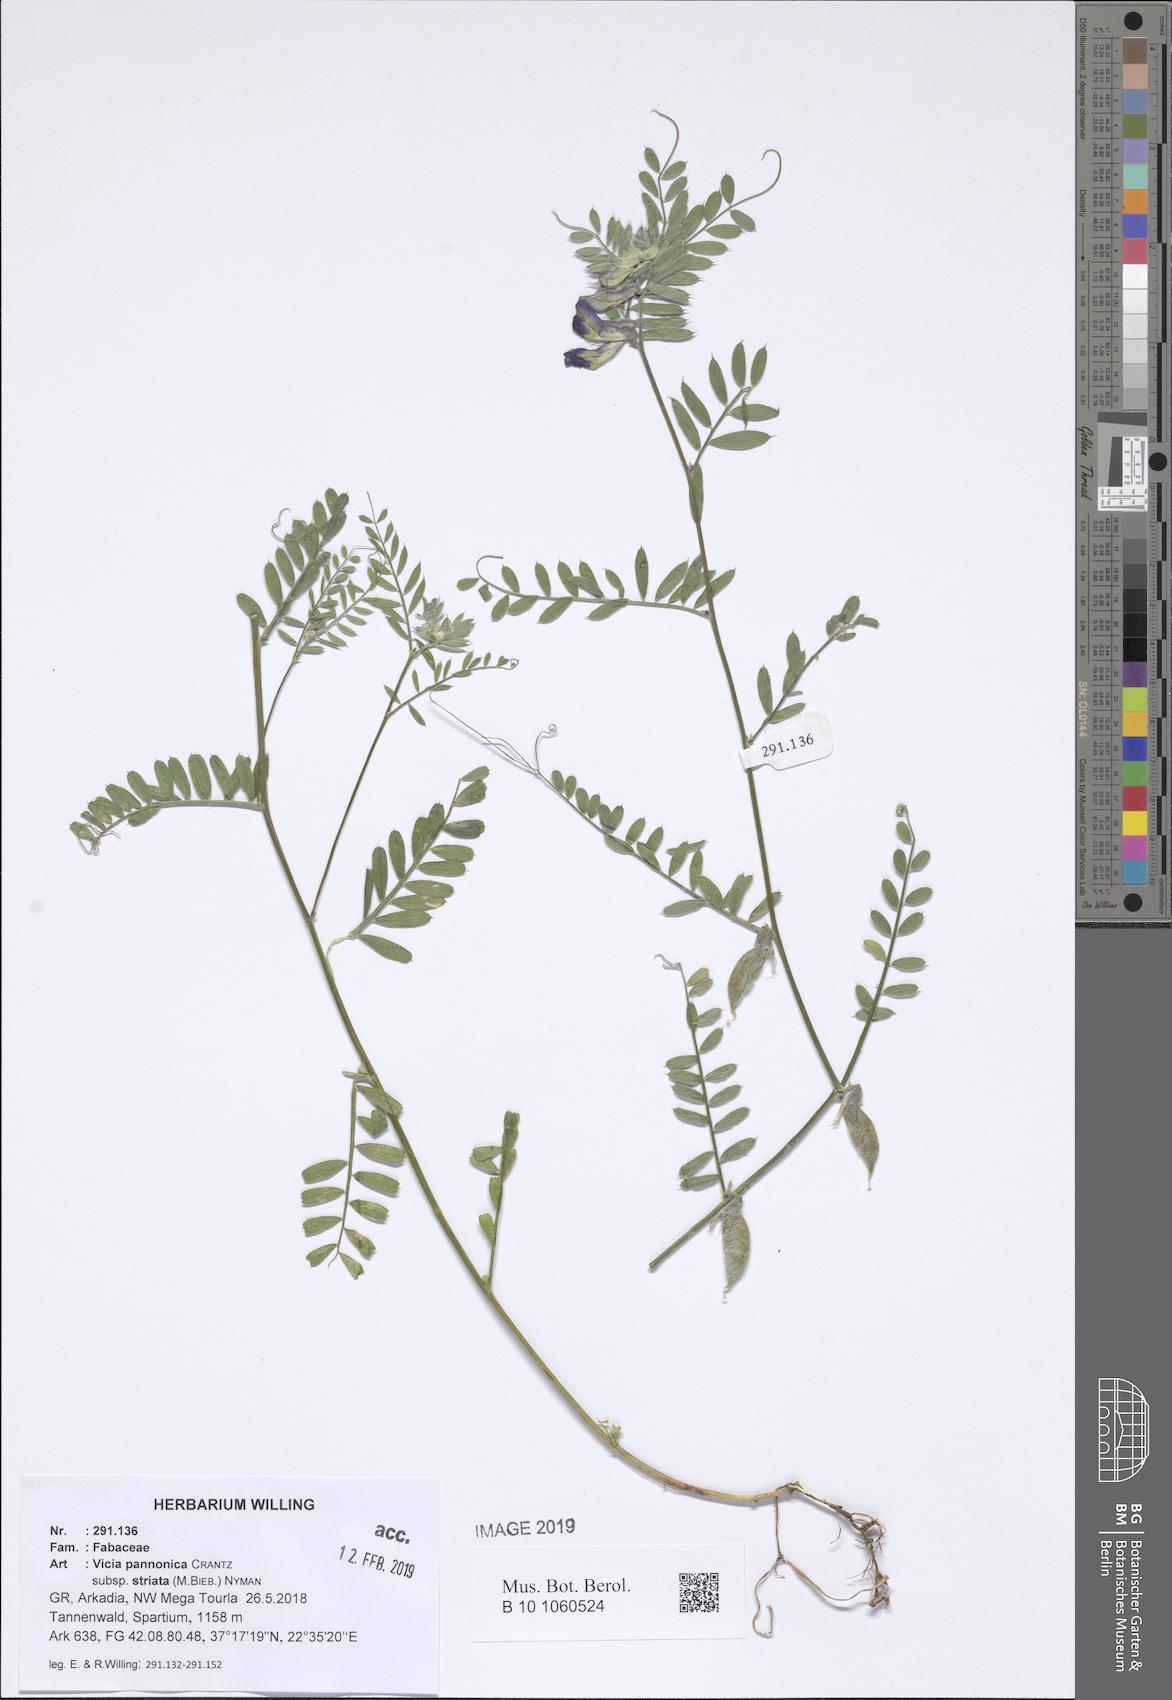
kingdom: Plantae
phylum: Tracheophyta
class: Magnoliopsida
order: Fabales
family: Fabaceae
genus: Vicia
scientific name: Vicia pannonica
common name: Hungarian vetch
